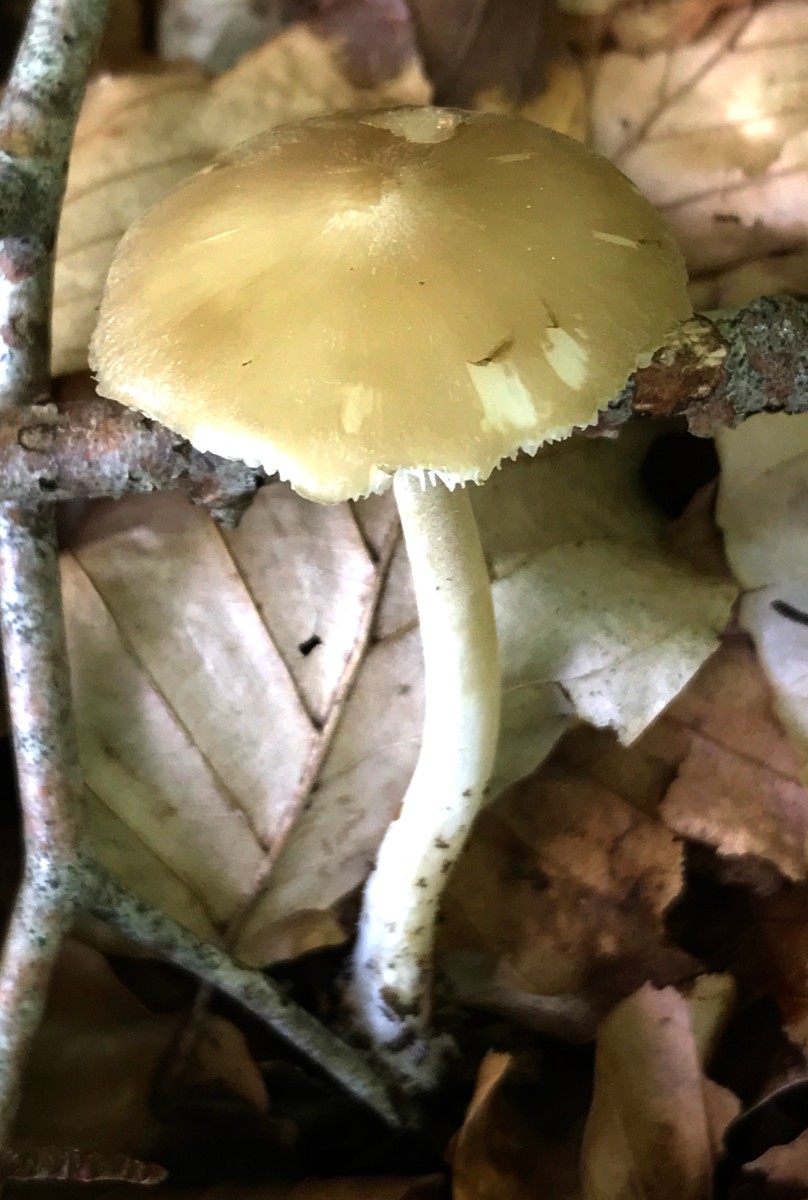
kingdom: Fungi
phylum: Basidiomycota
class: Agaricomycetes
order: Agaricales
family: Porotheleaceae
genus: Hydropodia
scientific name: Hydropodia subalpina
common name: vår-fnugfod
